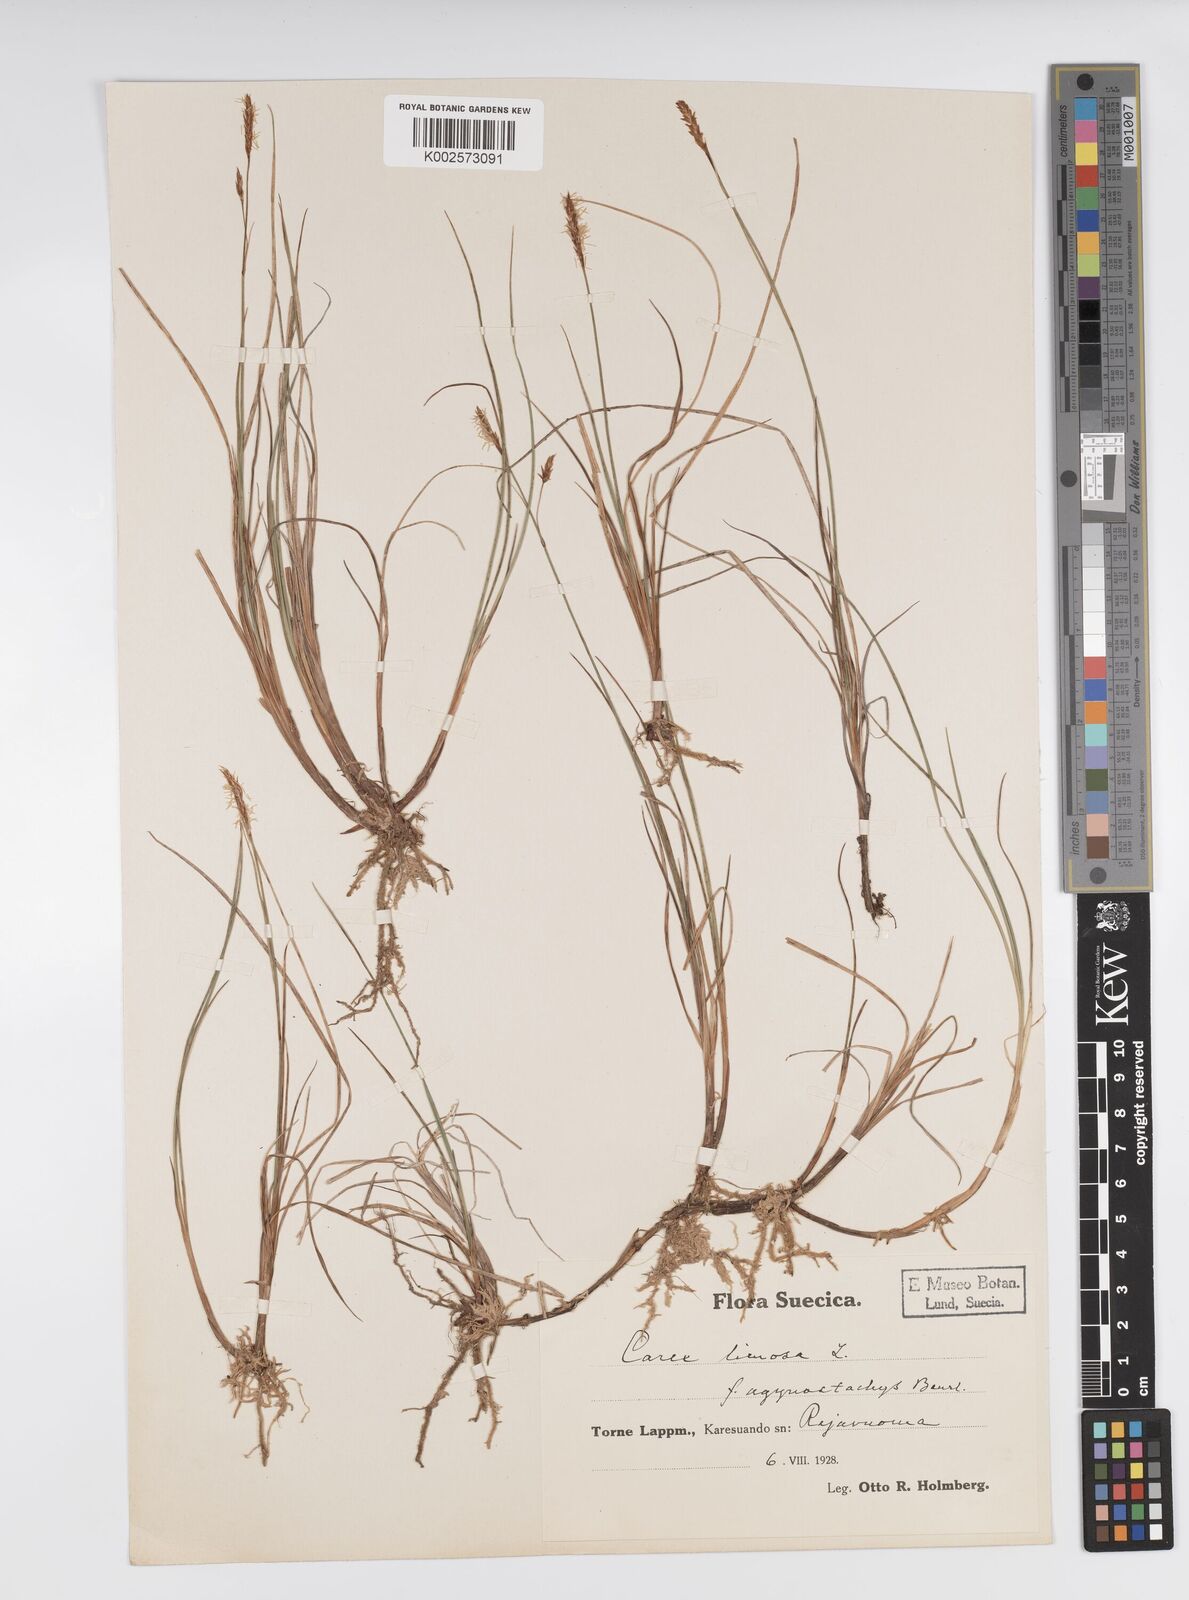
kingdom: Plantae
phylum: Tracheophyta
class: Liliopsida
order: Poales
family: Cyperaceae
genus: Carex
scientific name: Carex limosa
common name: Bog sedge
